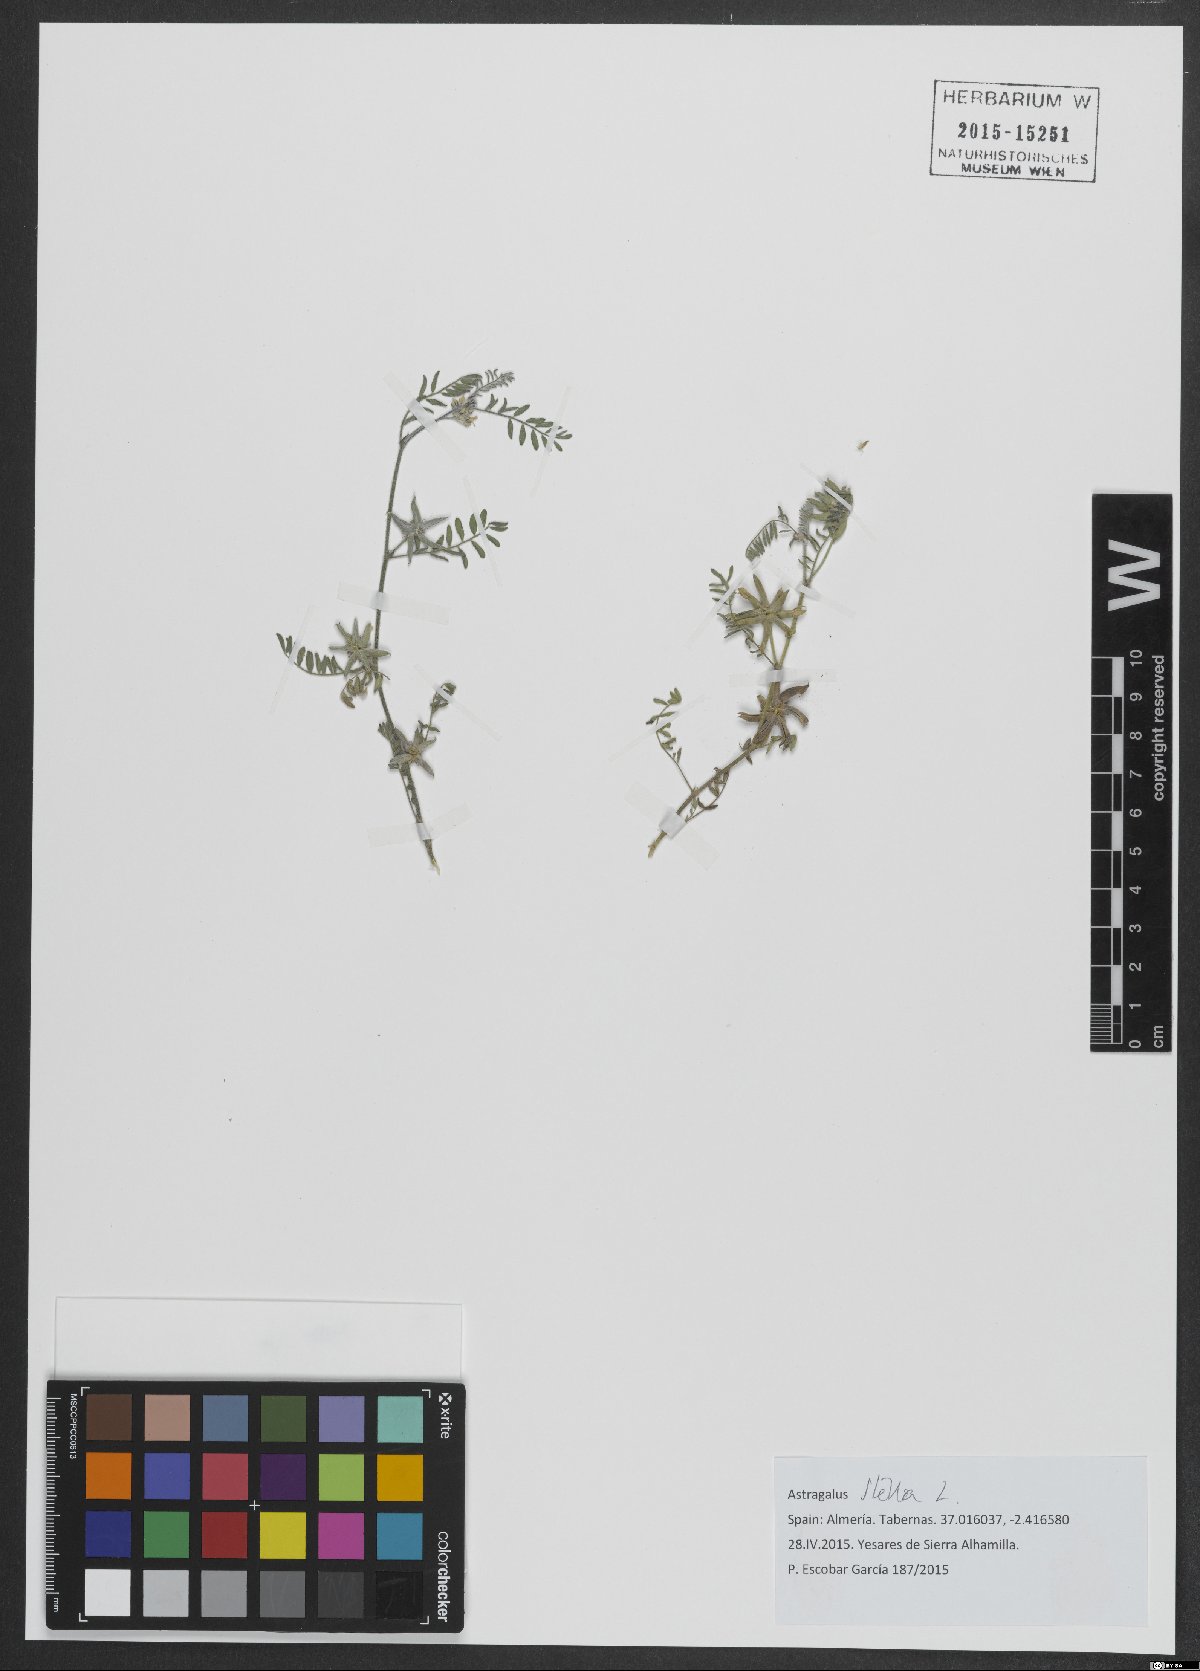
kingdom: Plantae
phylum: Tracheophyta
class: Magnoliopsida
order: Fabales
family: Fabaceae
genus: Astragalus
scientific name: Astragalus stella
